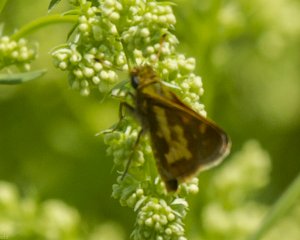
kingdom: Animalia
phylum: Arthropoda
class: Insecta
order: Lepidoptera
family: Hesperiidae
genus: Polites
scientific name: Polites coras
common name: Peck's Skipper
